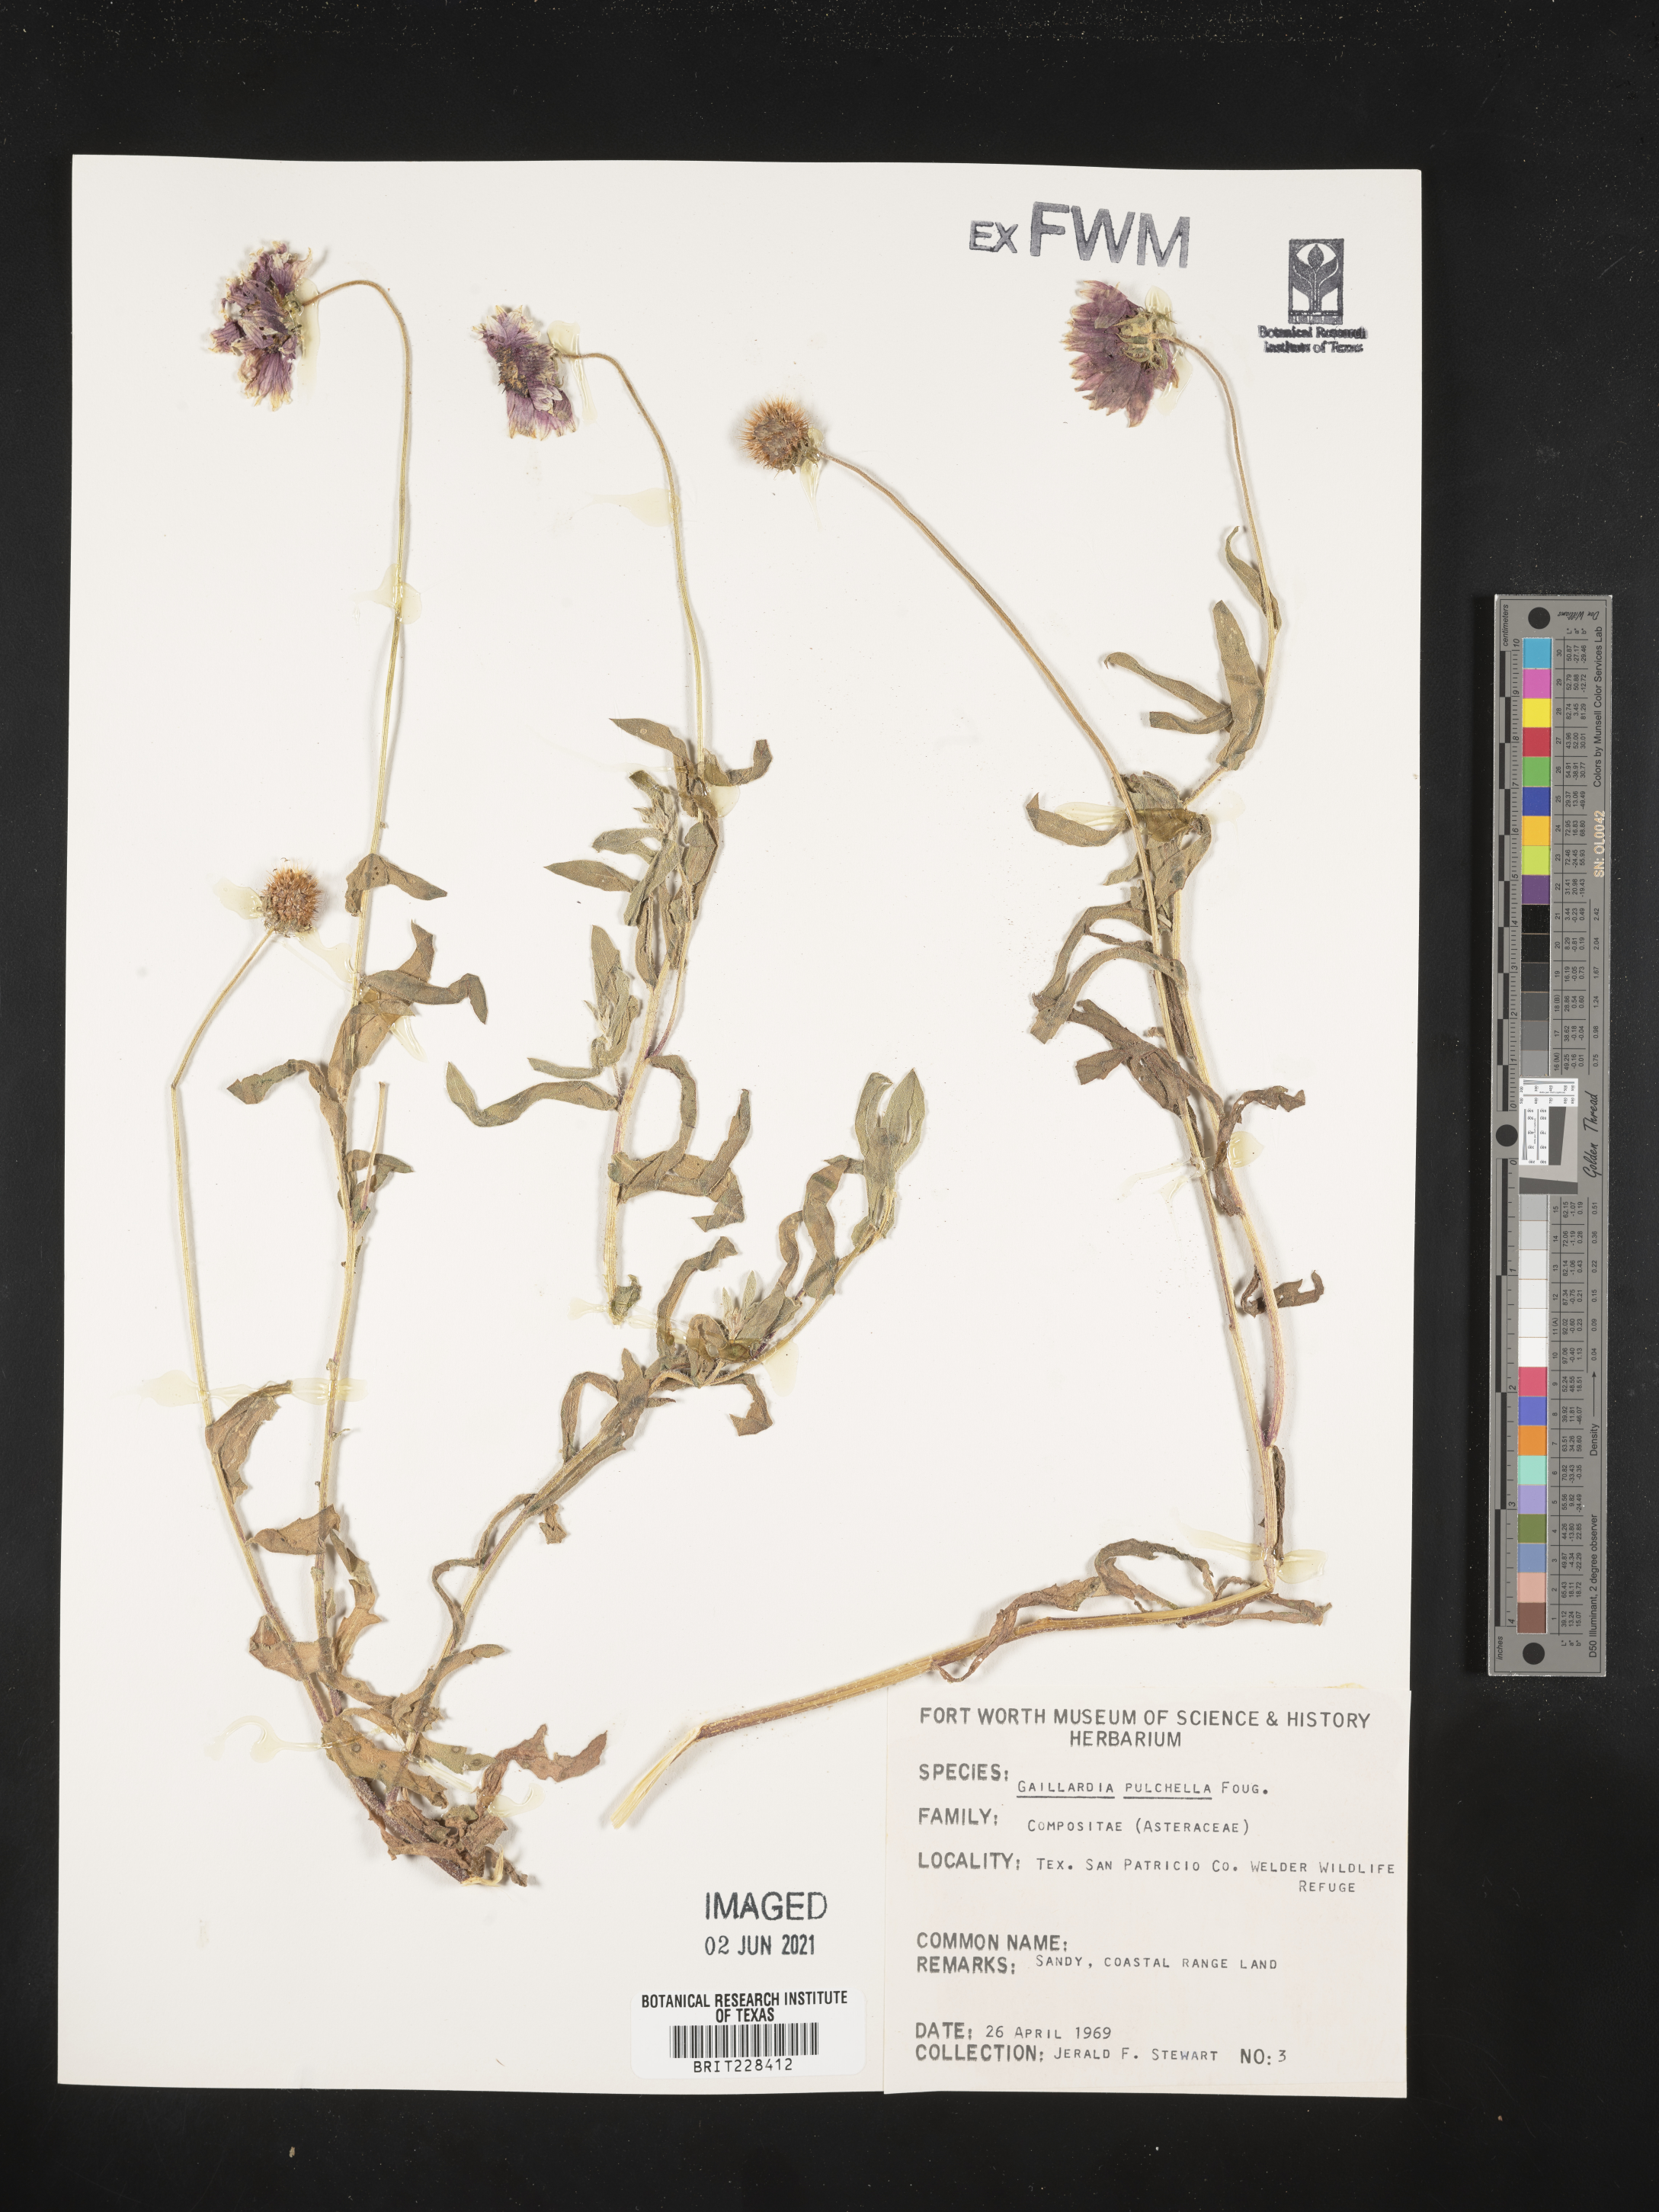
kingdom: Plantae
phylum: Tracheophyta
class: Magnoliopsida
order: Asterales
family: Asteraceae
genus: Gaillardia
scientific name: Gaillardia pulchella
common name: Firewheel
